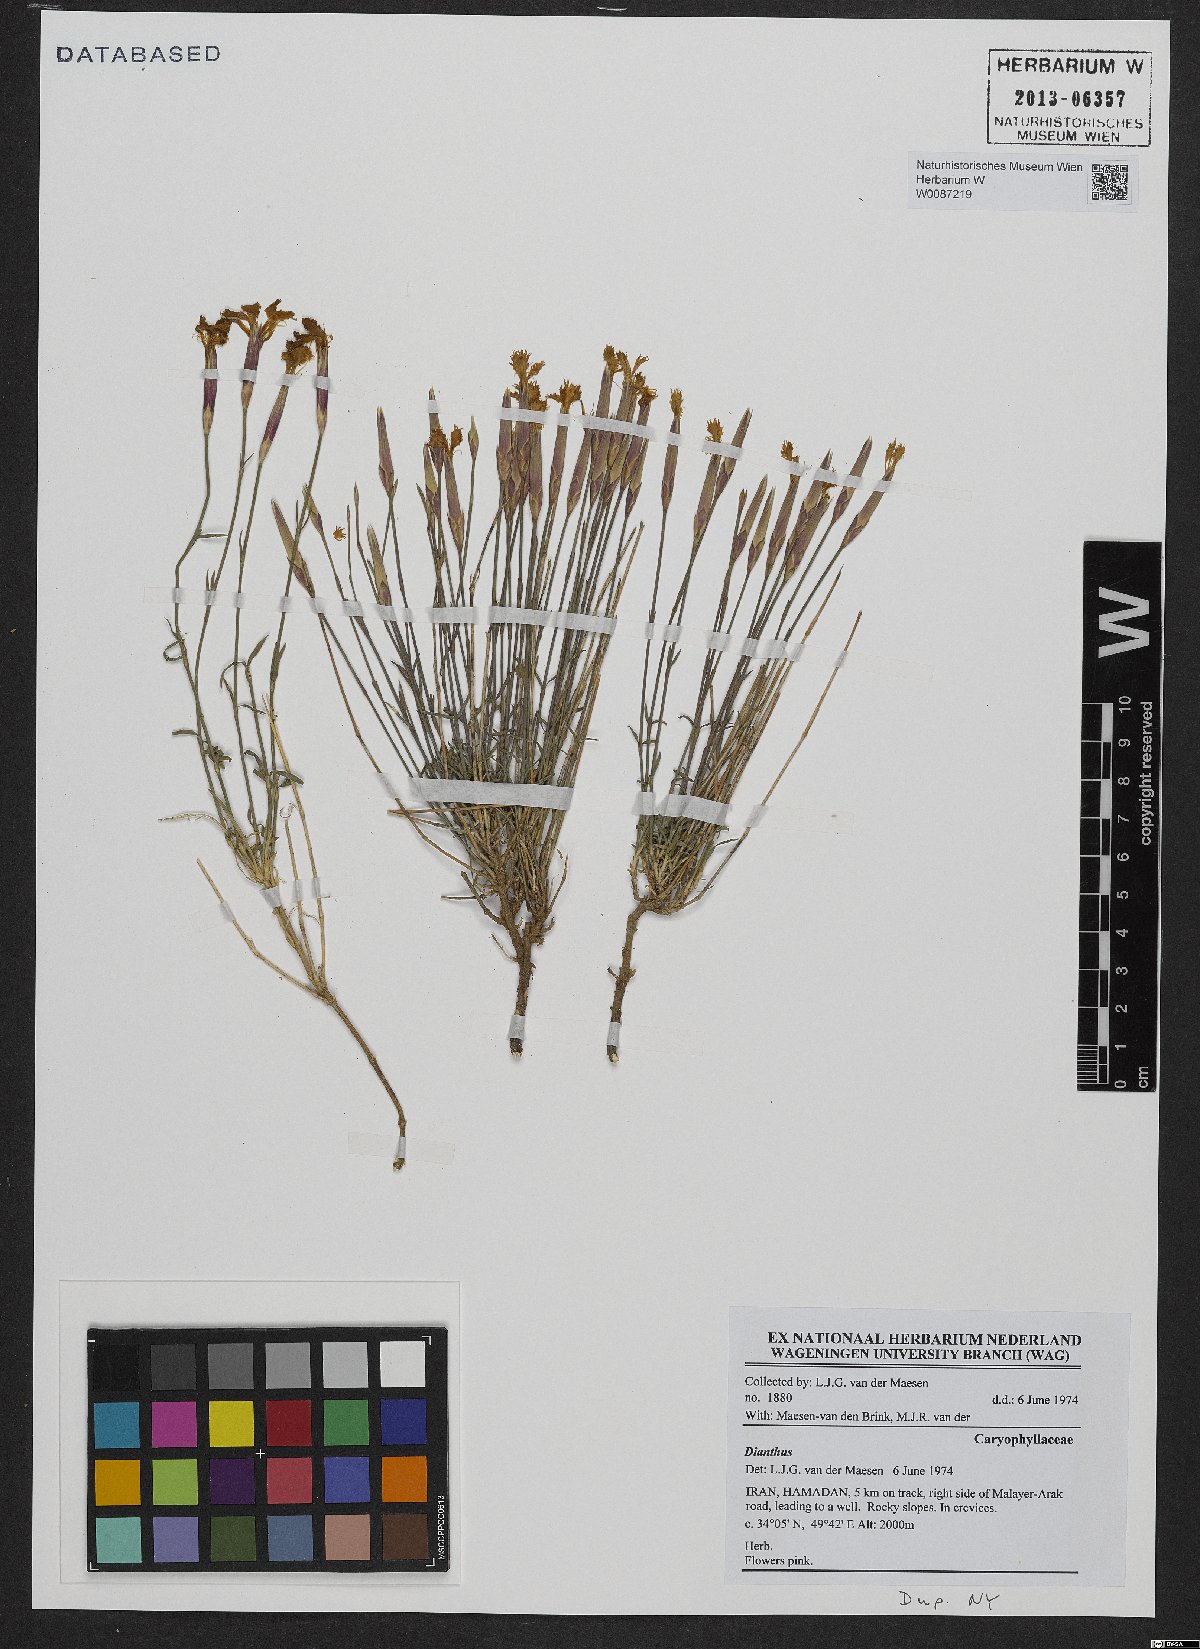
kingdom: Plantae
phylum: Tracheophyta
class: Magnoliopsida
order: Caryophyllales
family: Caryophyllaceae
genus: Dianthus
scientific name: Dianthus
